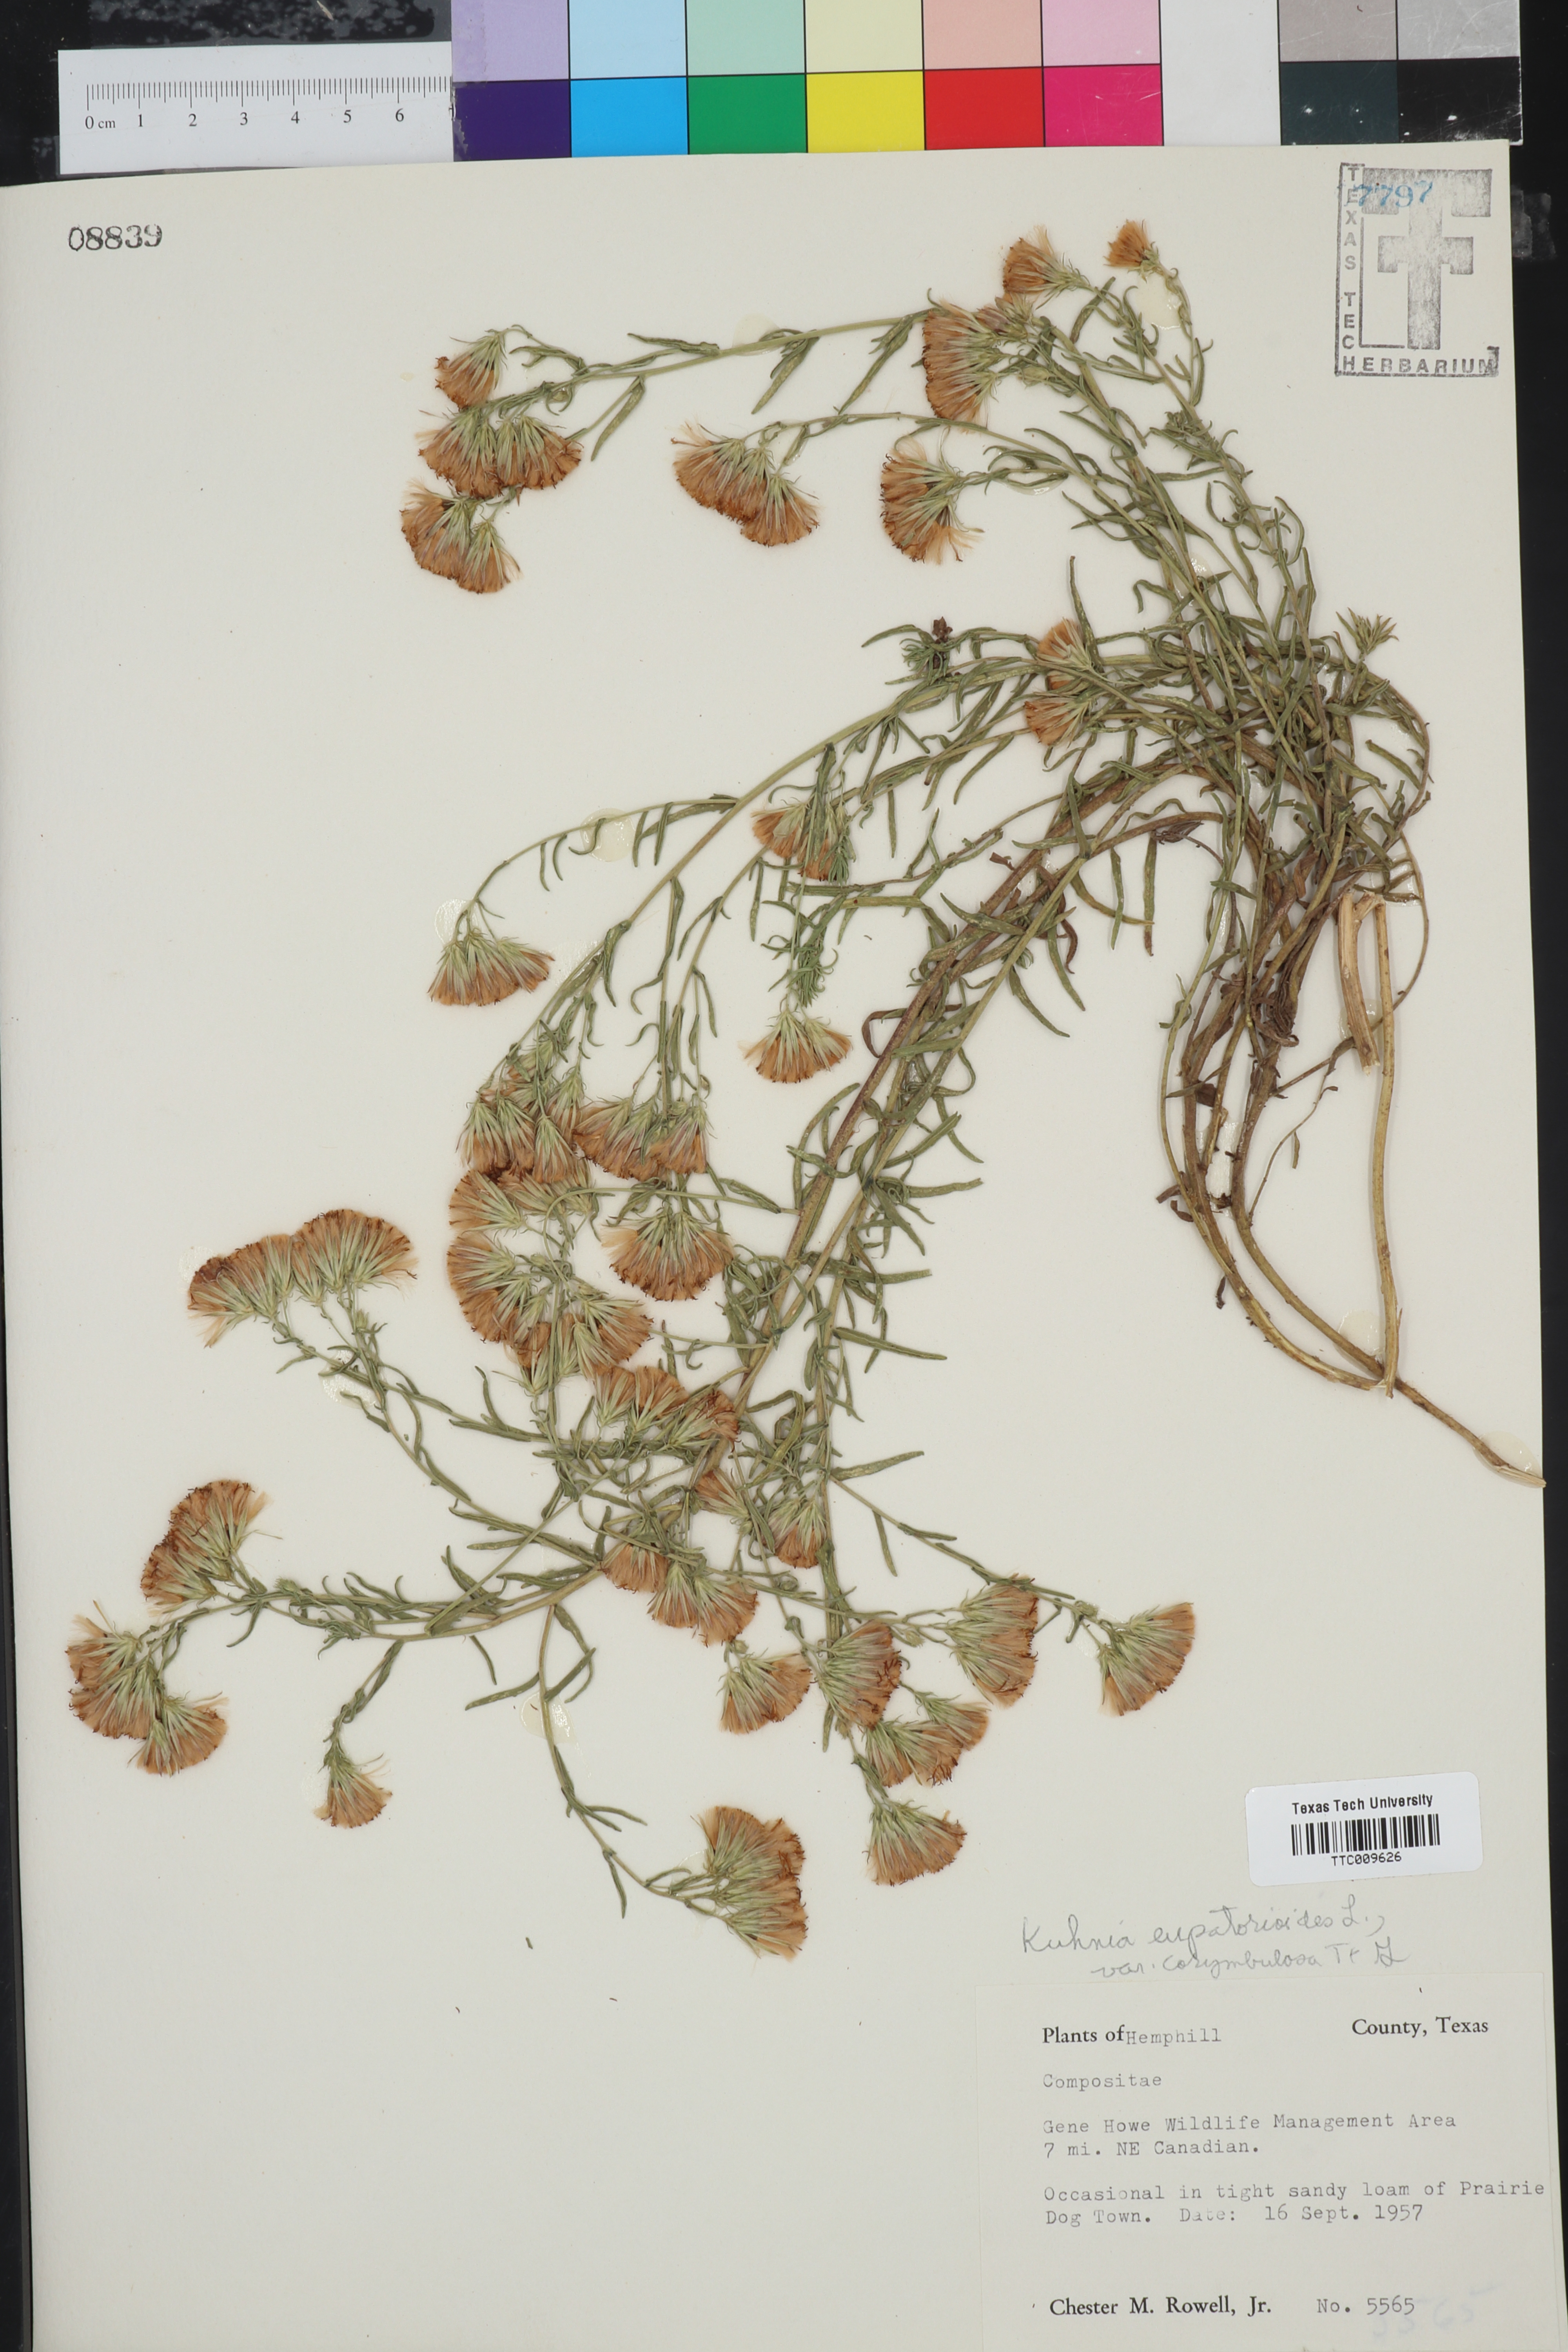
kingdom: Plantae
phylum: Tracheophyta
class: Magnoliopsida
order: Asterales
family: Asteraceae
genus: Brickellia
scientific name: Brickellia suaveolens
